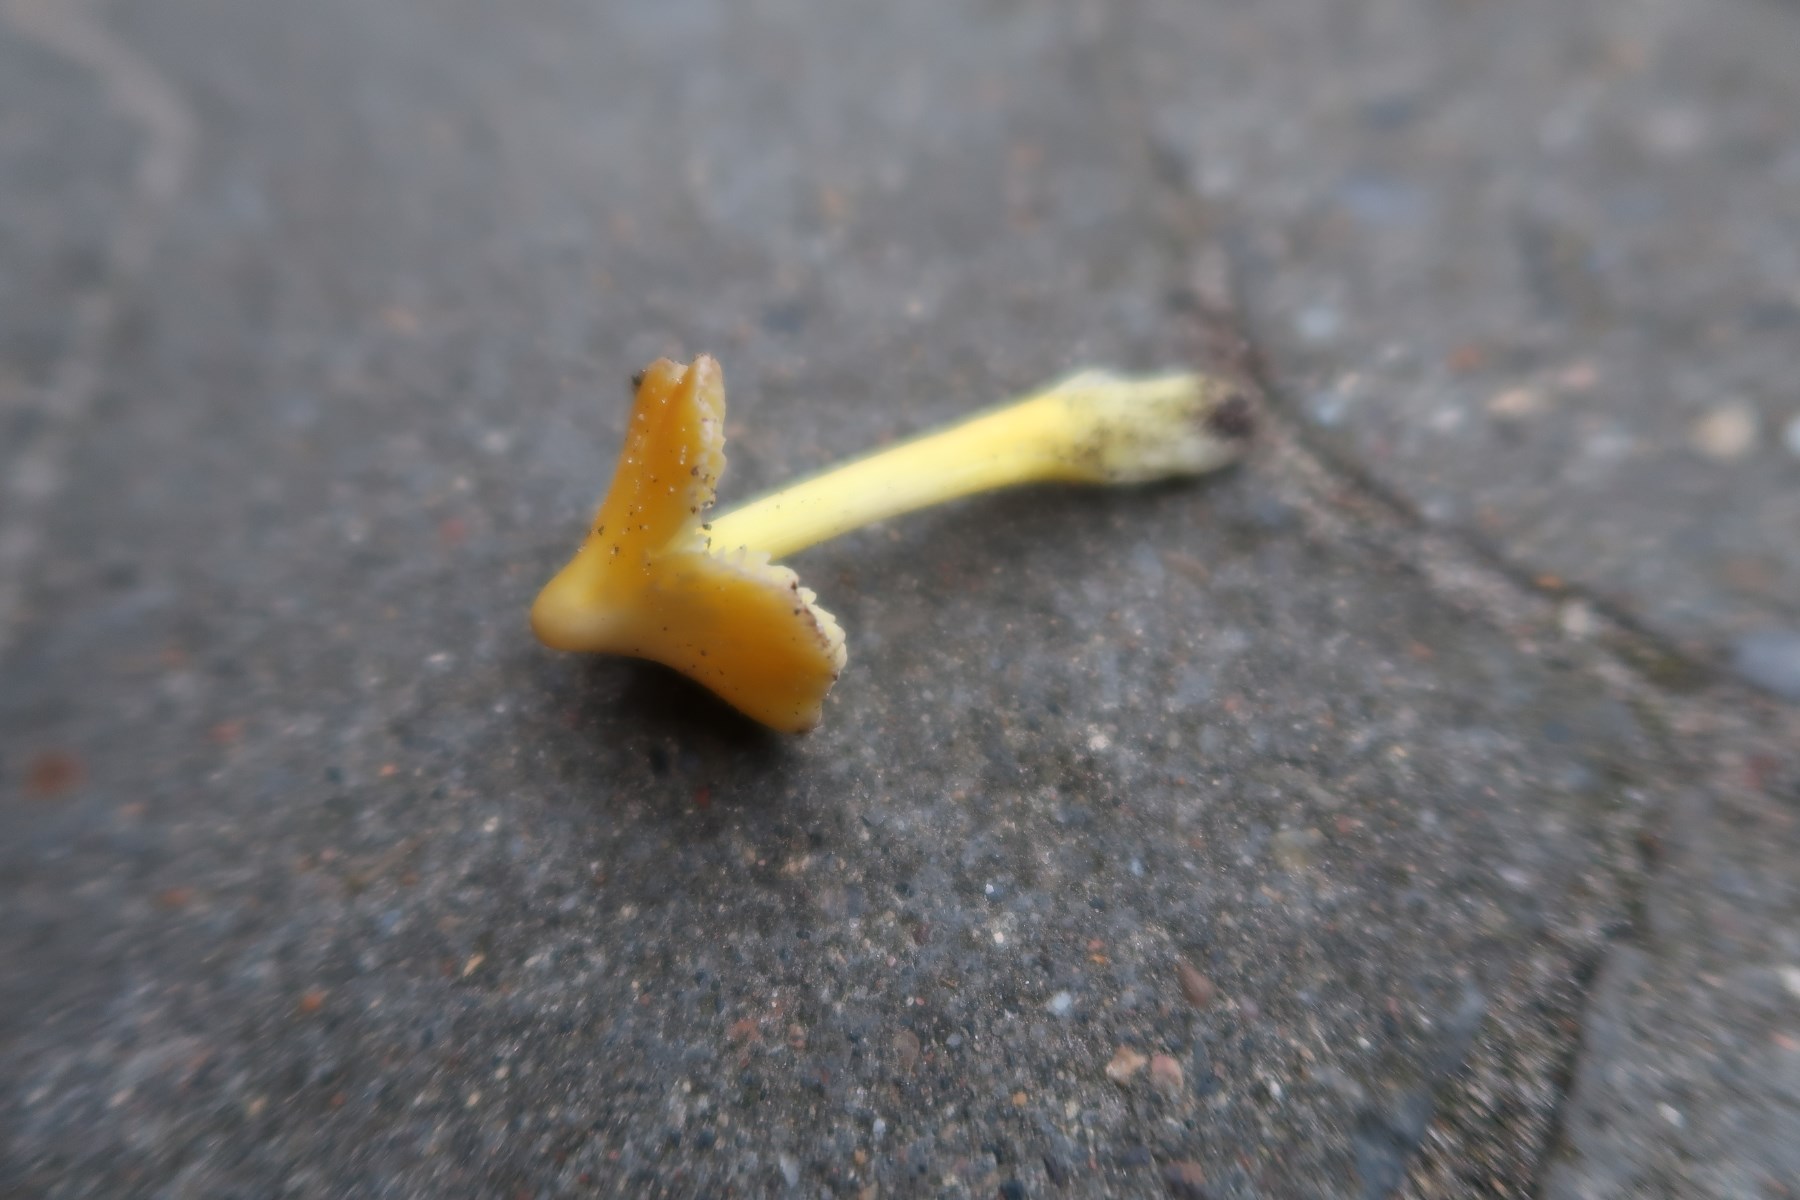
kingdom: Fungi
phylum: Basidiomycota
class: Agaricomycetes
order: Agaricales
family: Hygrophoraceae
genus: Hygrocybe
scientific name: Hygrocybe acutoconica
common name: spidspuklet vokshat
